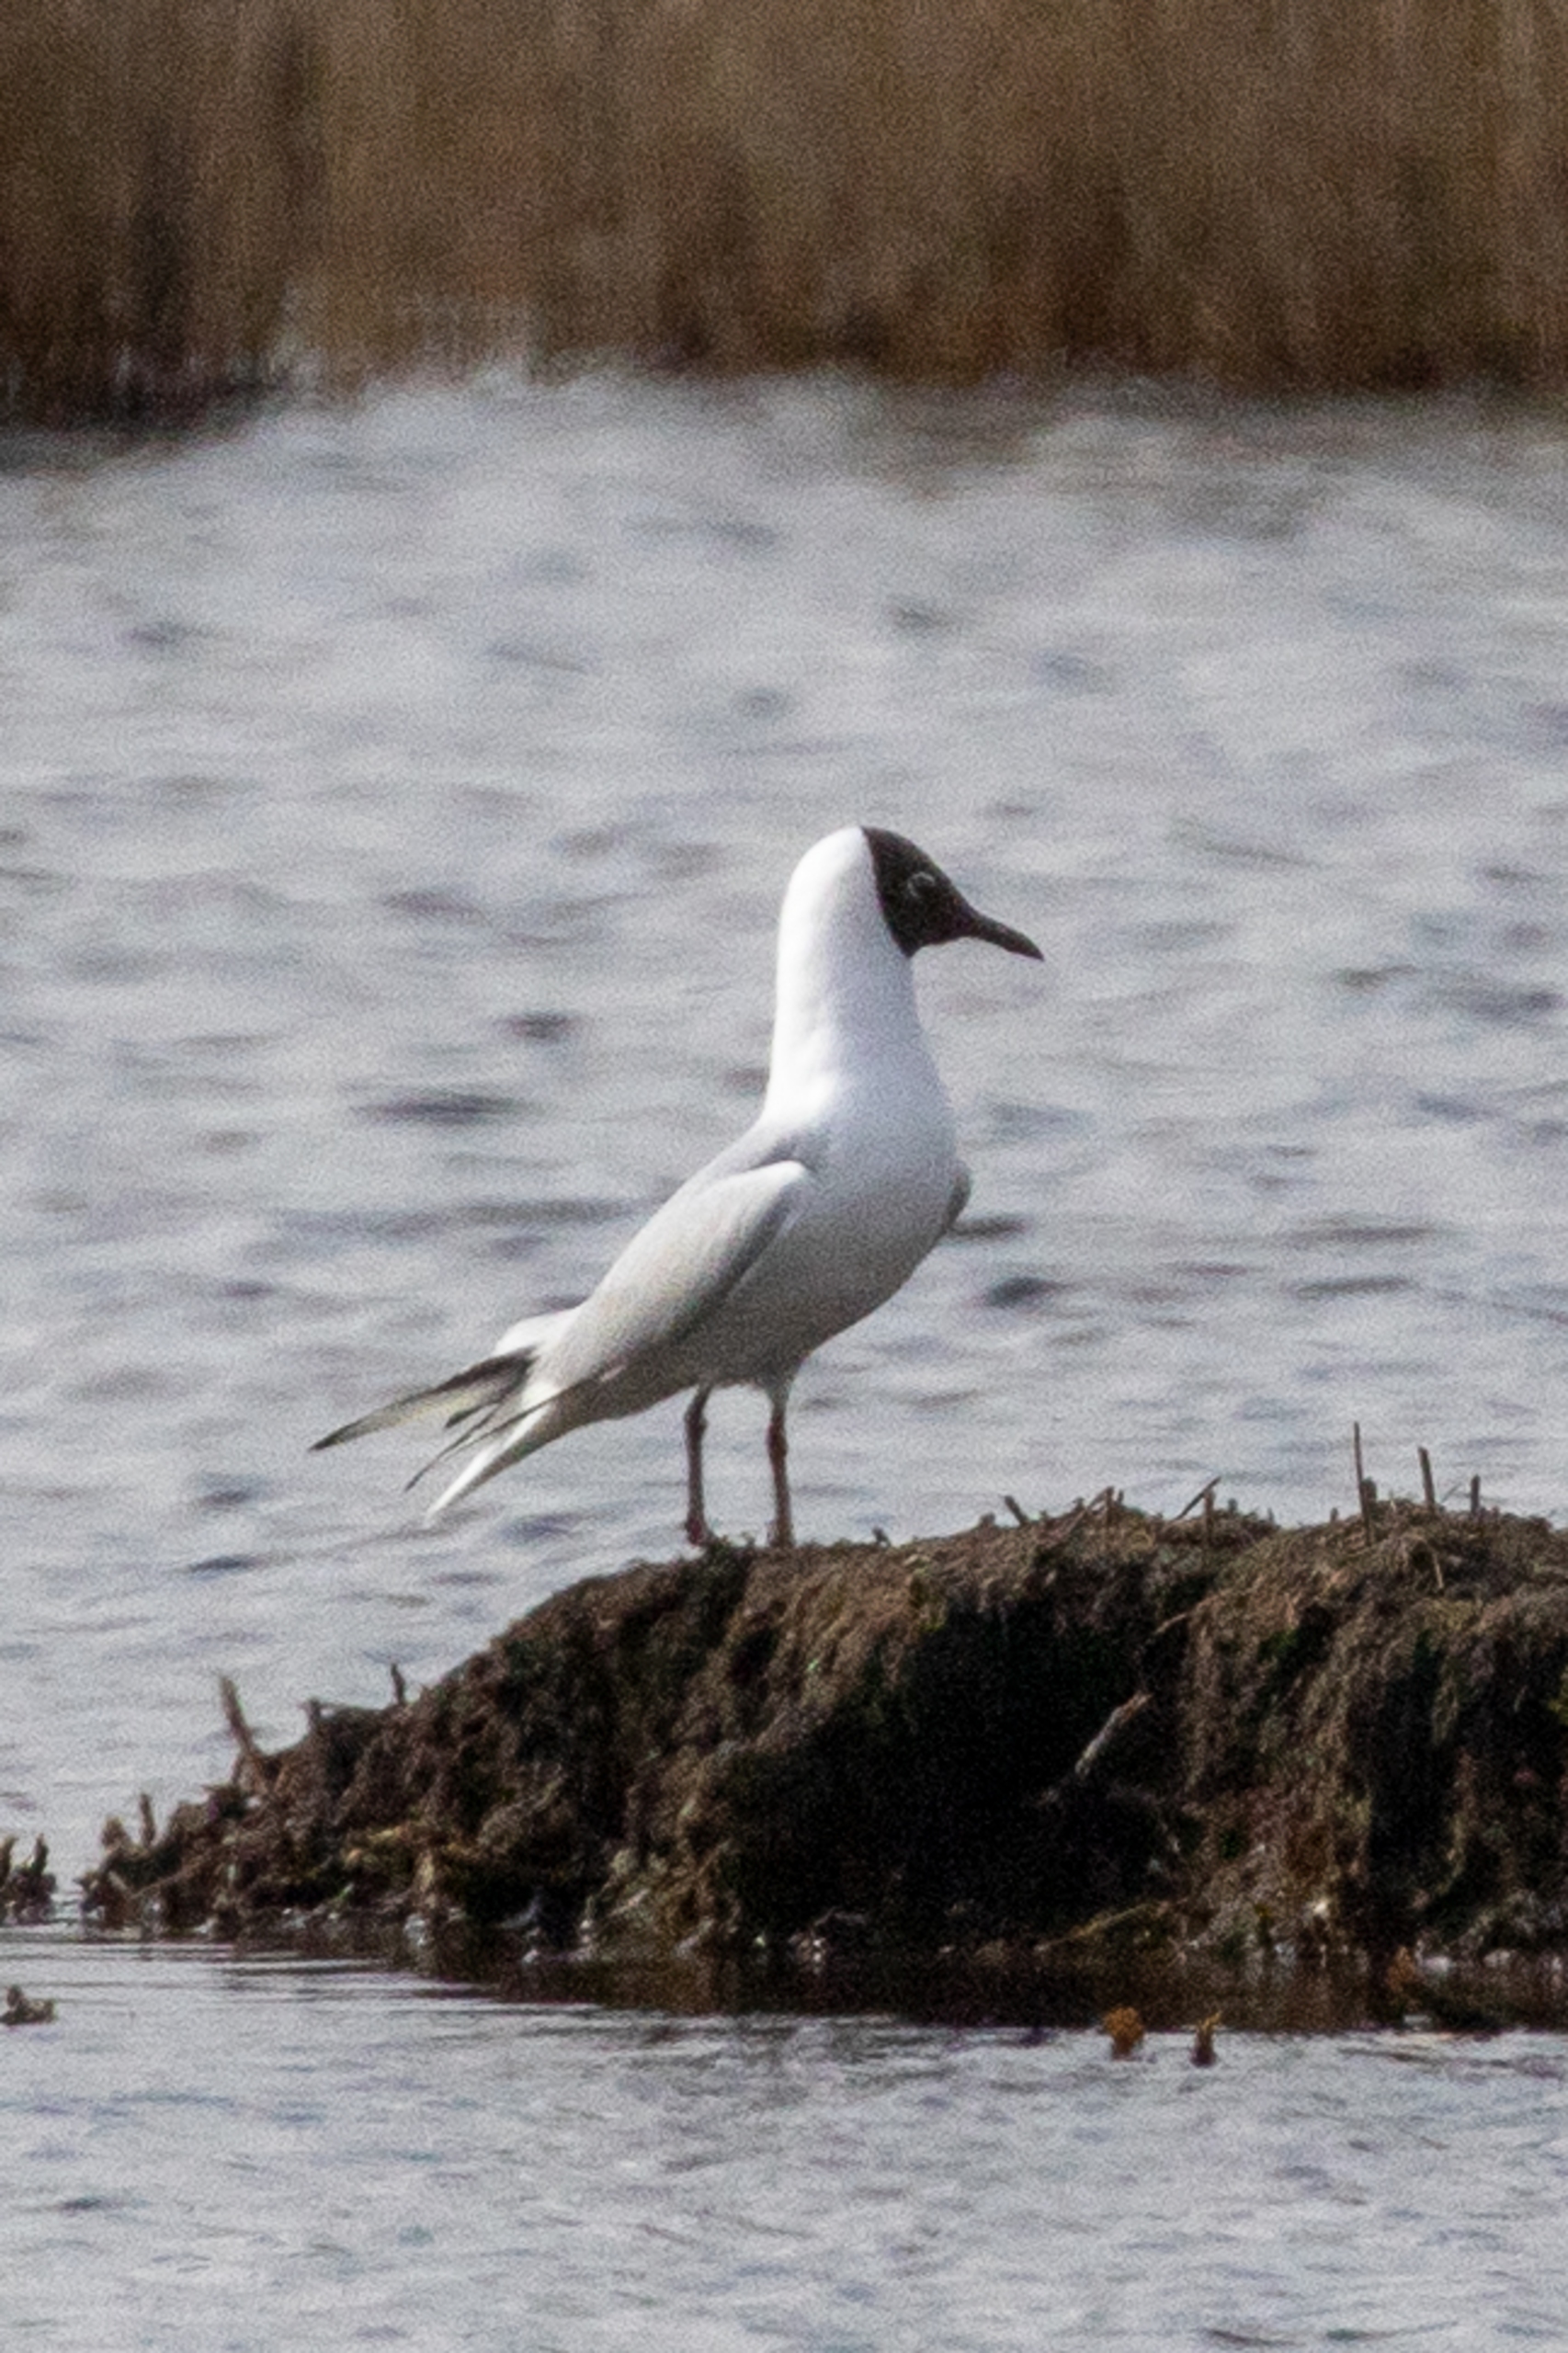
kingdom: Animalia
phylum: Chordata
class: Aves
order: Charadriiformes
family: Laridae
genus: Chroicocephalus
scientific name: Chroicocephalus ridibundus
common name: Hættemåge
